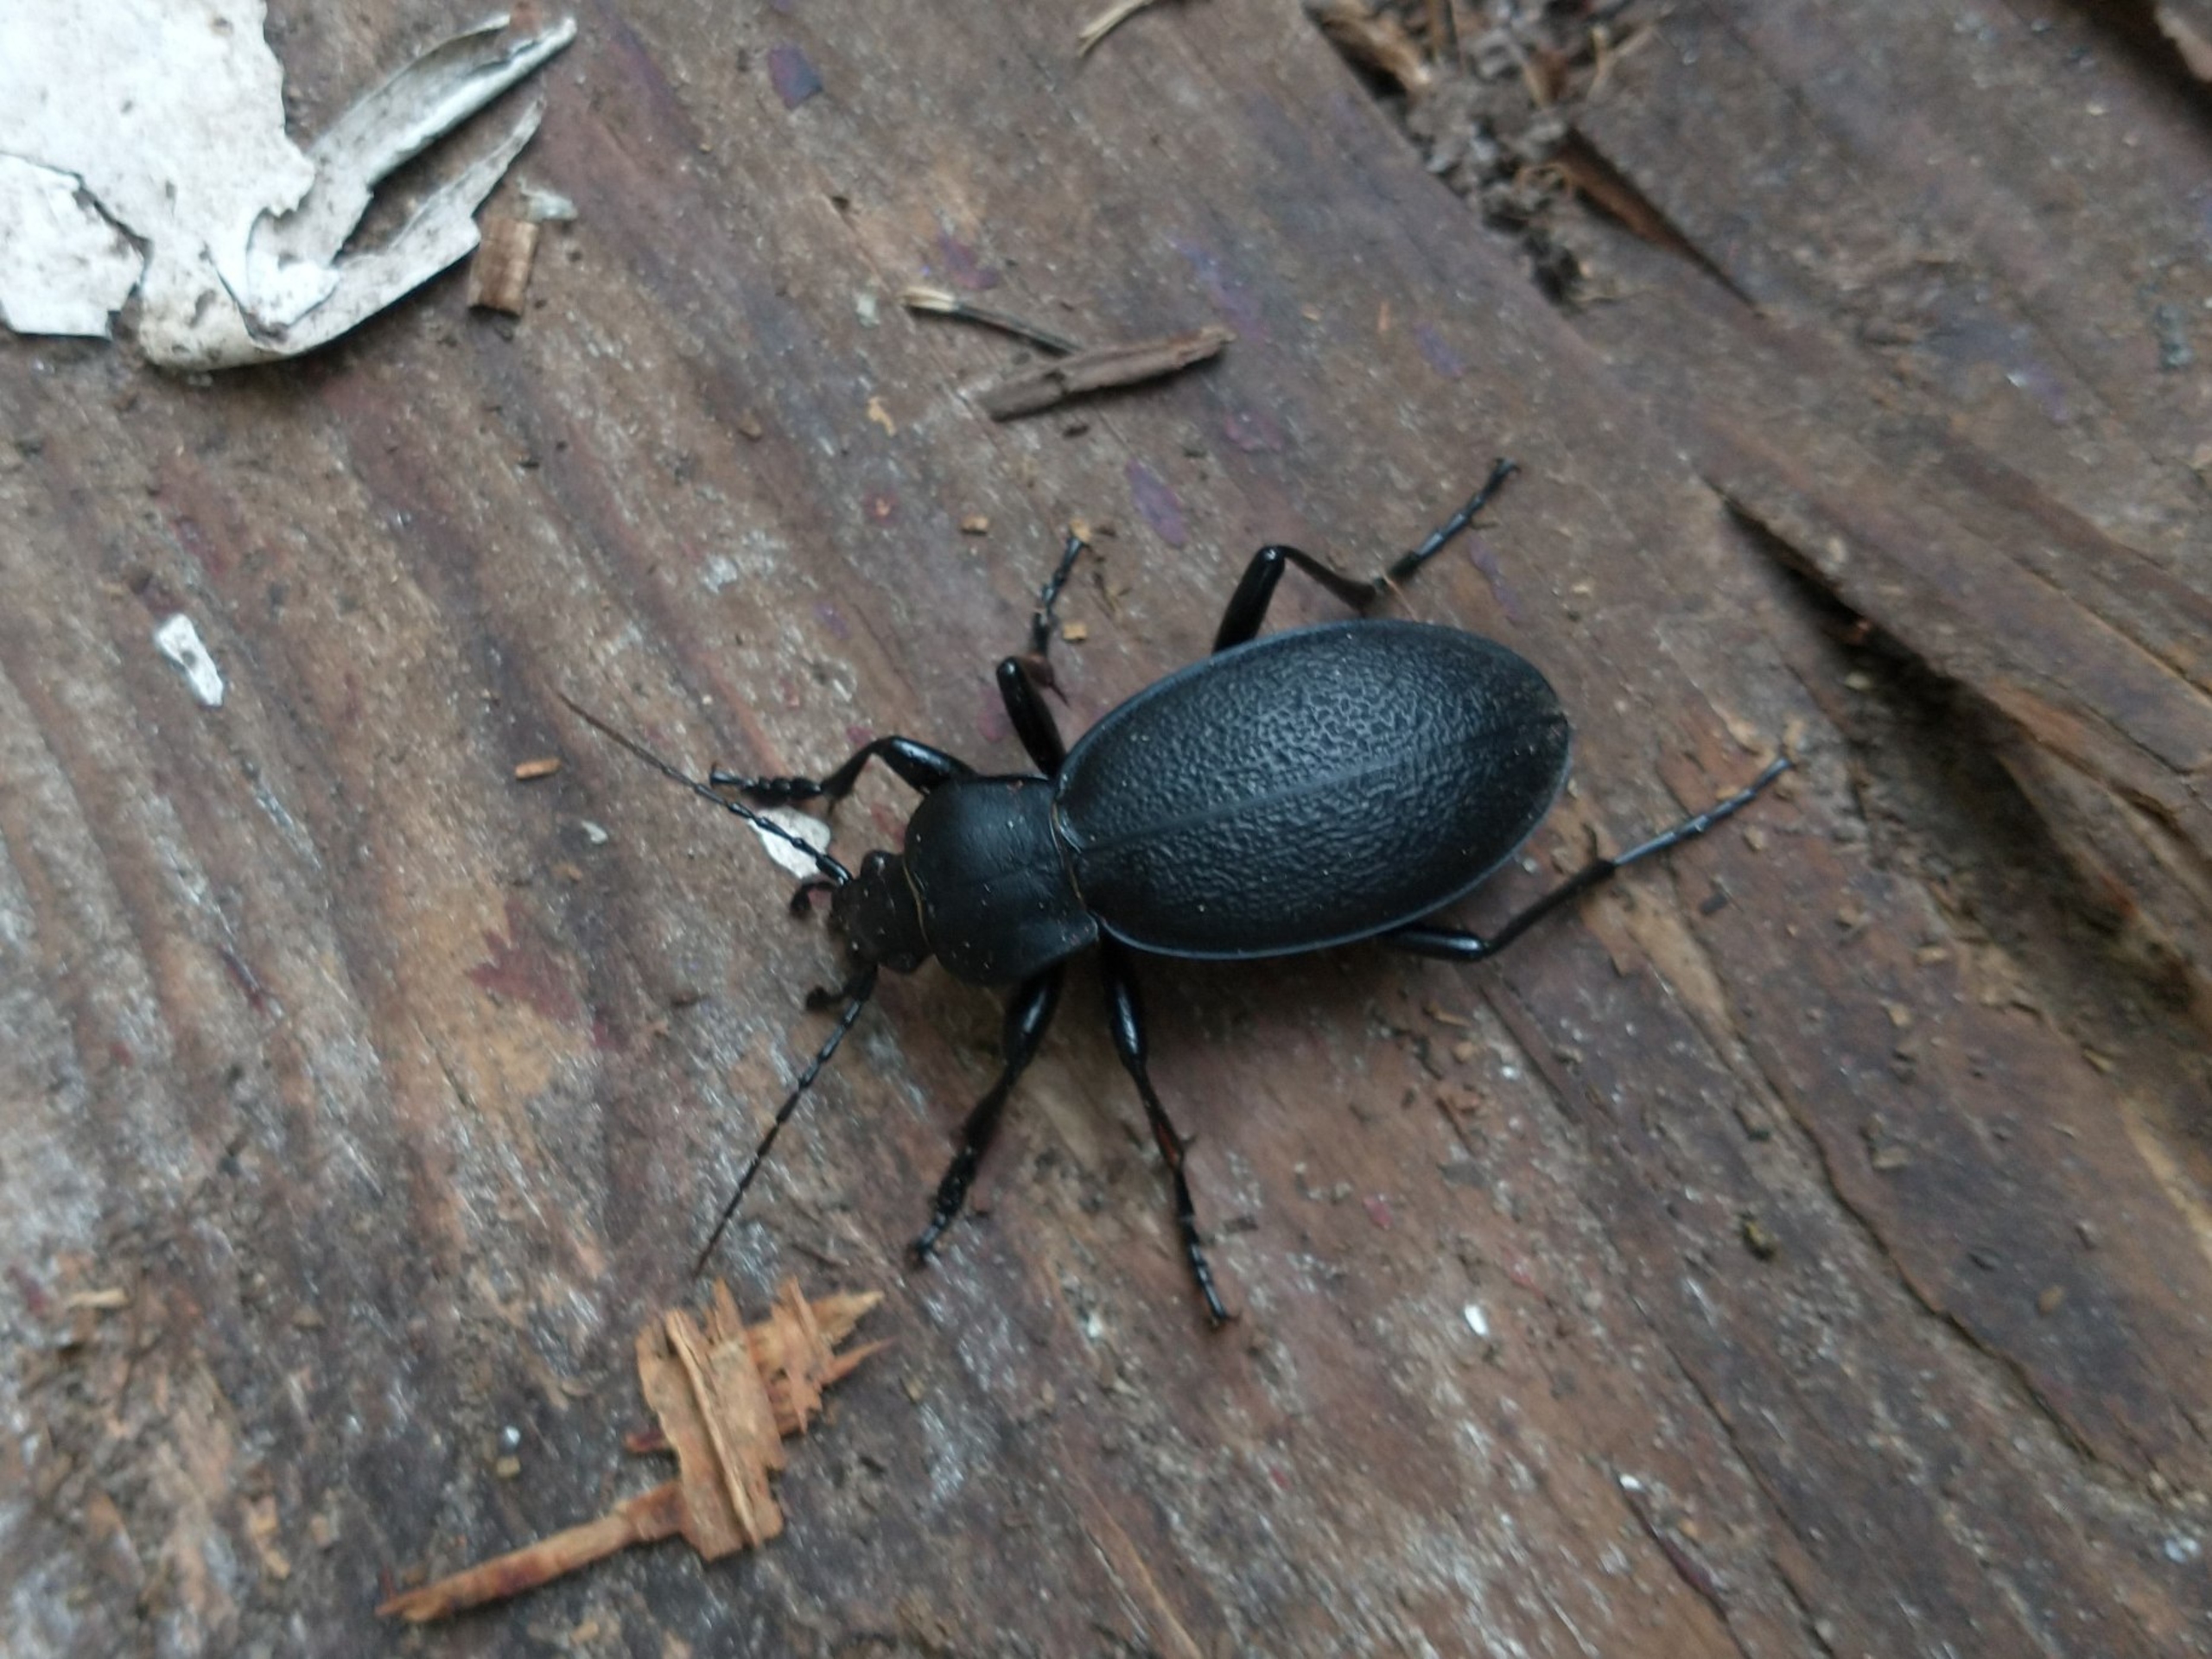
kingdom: Animalia
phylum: Arthropoda
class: Insecta
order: Coleoptera
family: Carabidae
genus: Carabus
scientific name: Carabus coriaceus
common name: Læderløber
